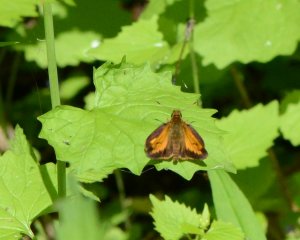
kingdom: Animalia
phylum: Arthropoda
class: Insecta
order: Lepidoptera
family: Hesperiidae
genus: Lon
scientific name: Lon hobomok
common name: Hobomok Skipper
